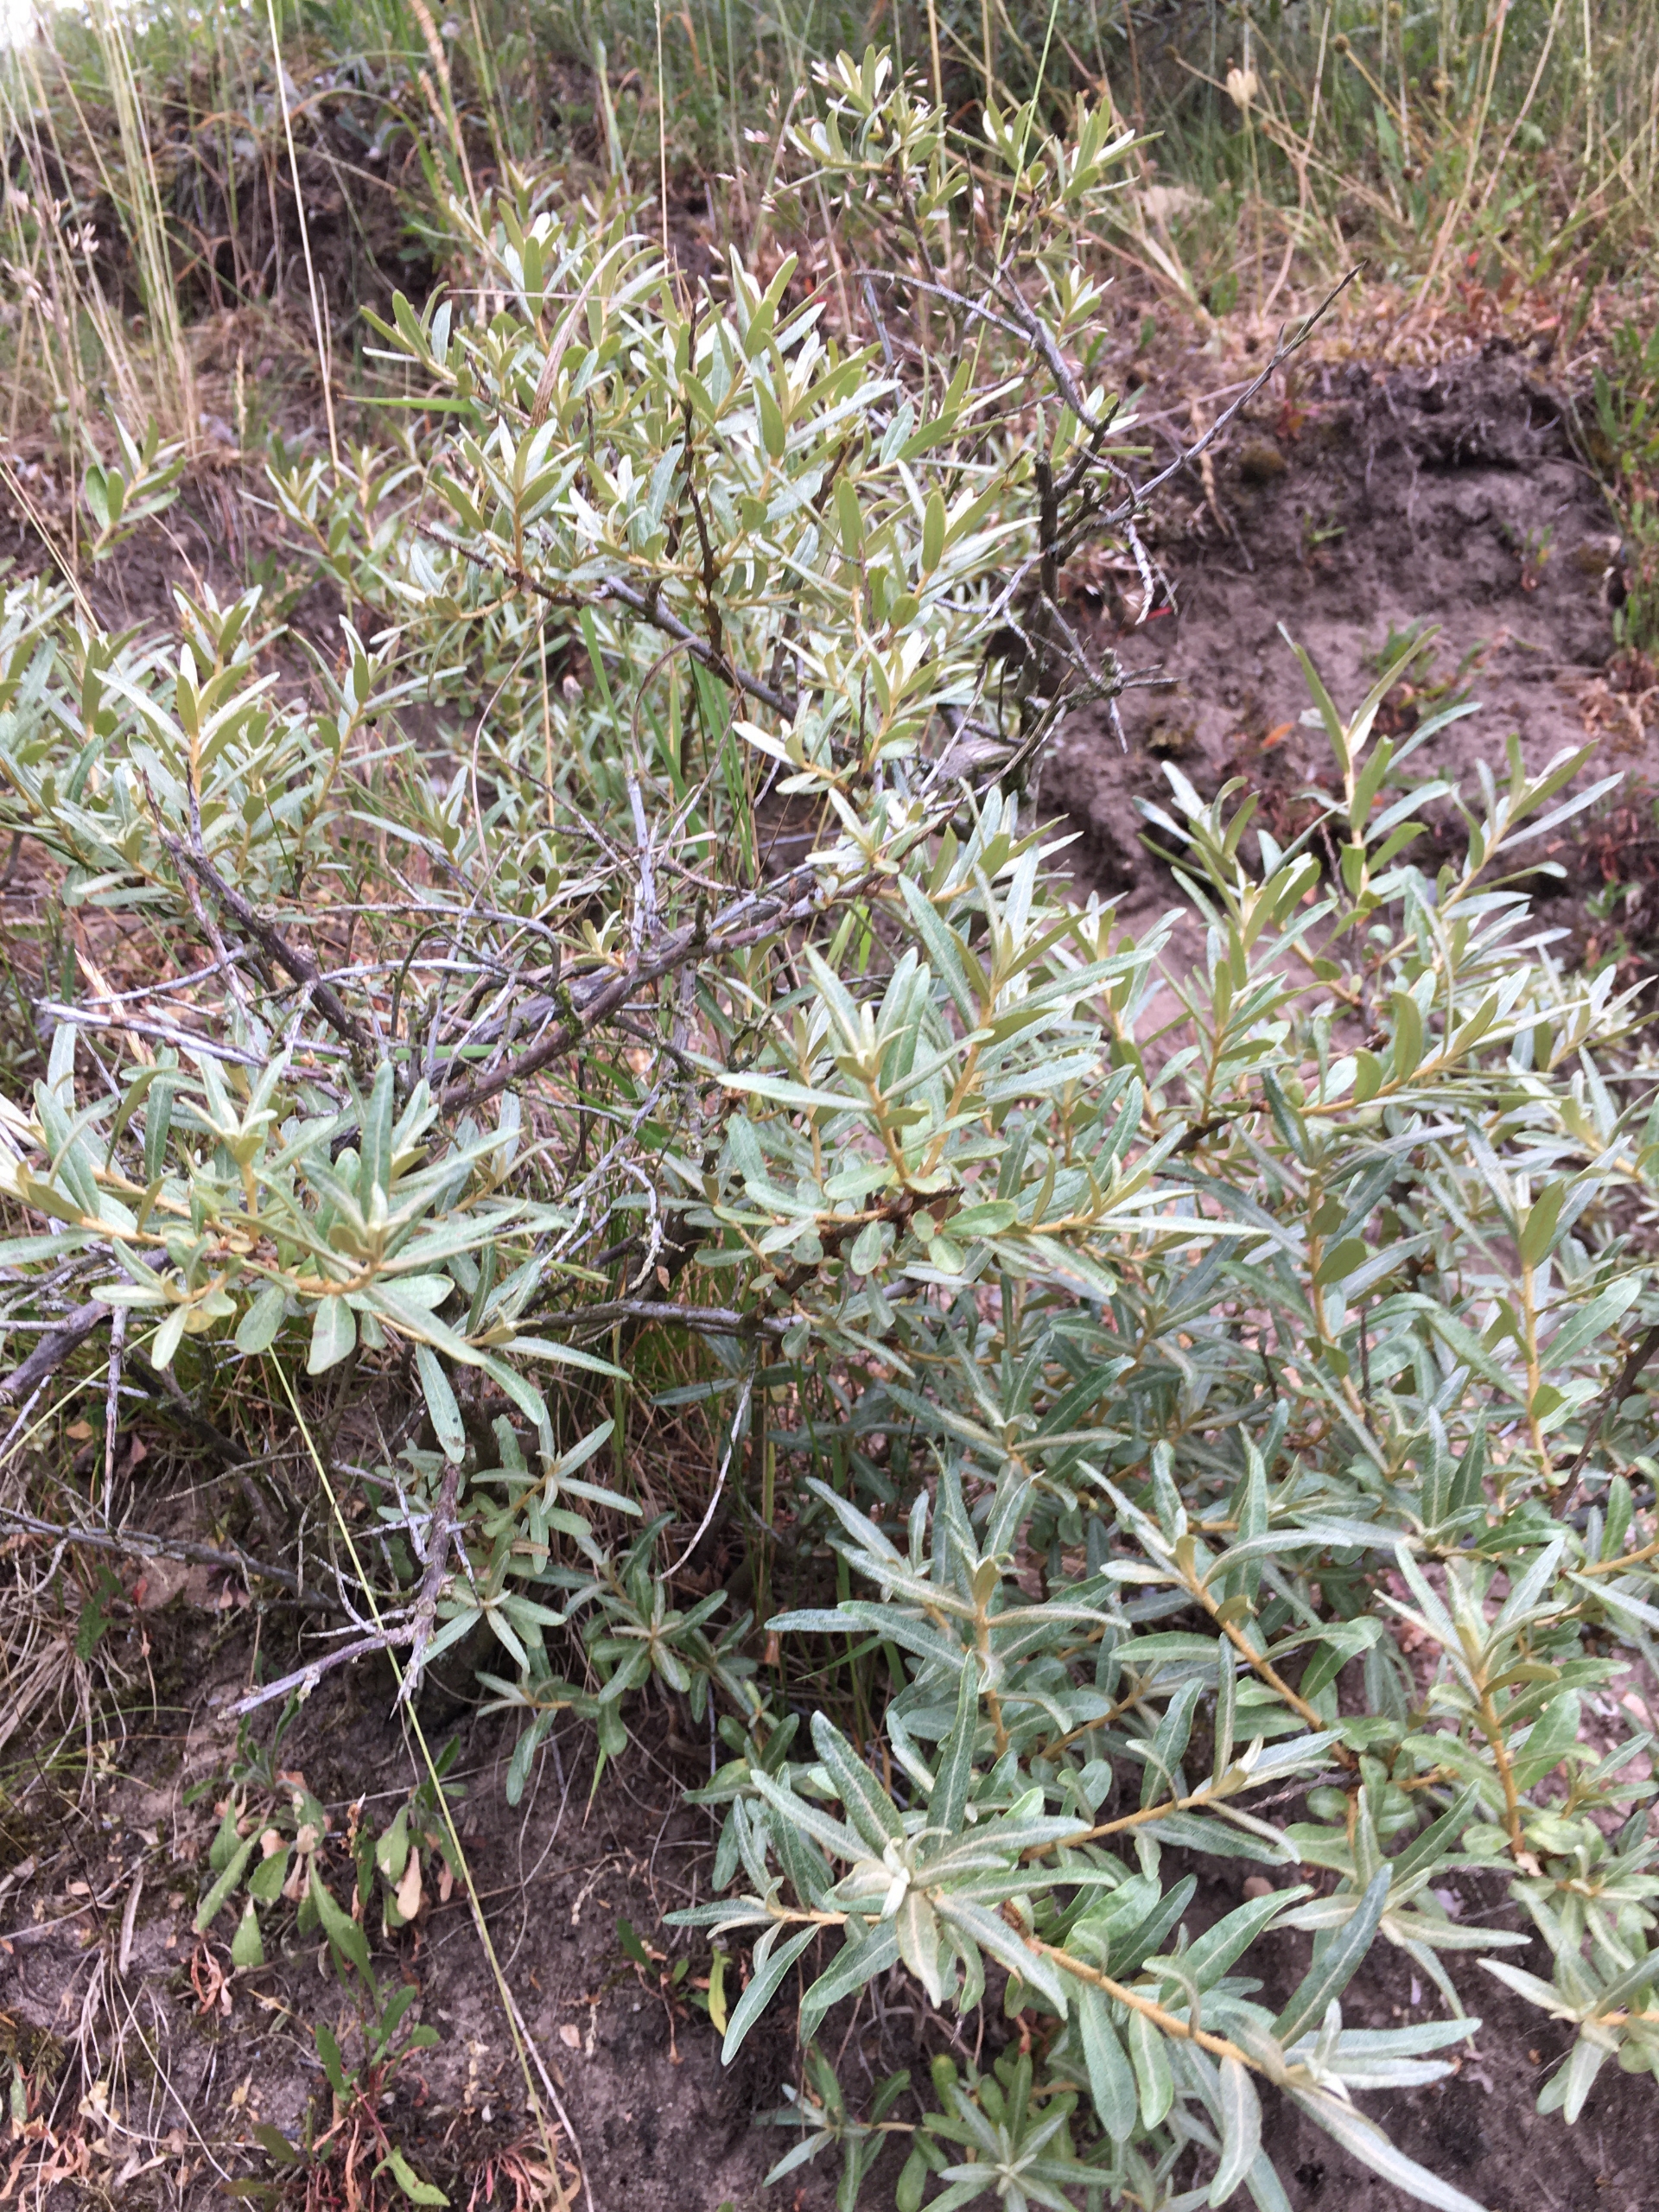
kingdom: Plantae
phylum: Tracheophyta
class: Magnoliopsida
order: Rosales
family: Elaeagnaceae
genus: Hippophae
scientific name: Hippophae rhamnoides
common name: Havtorn
